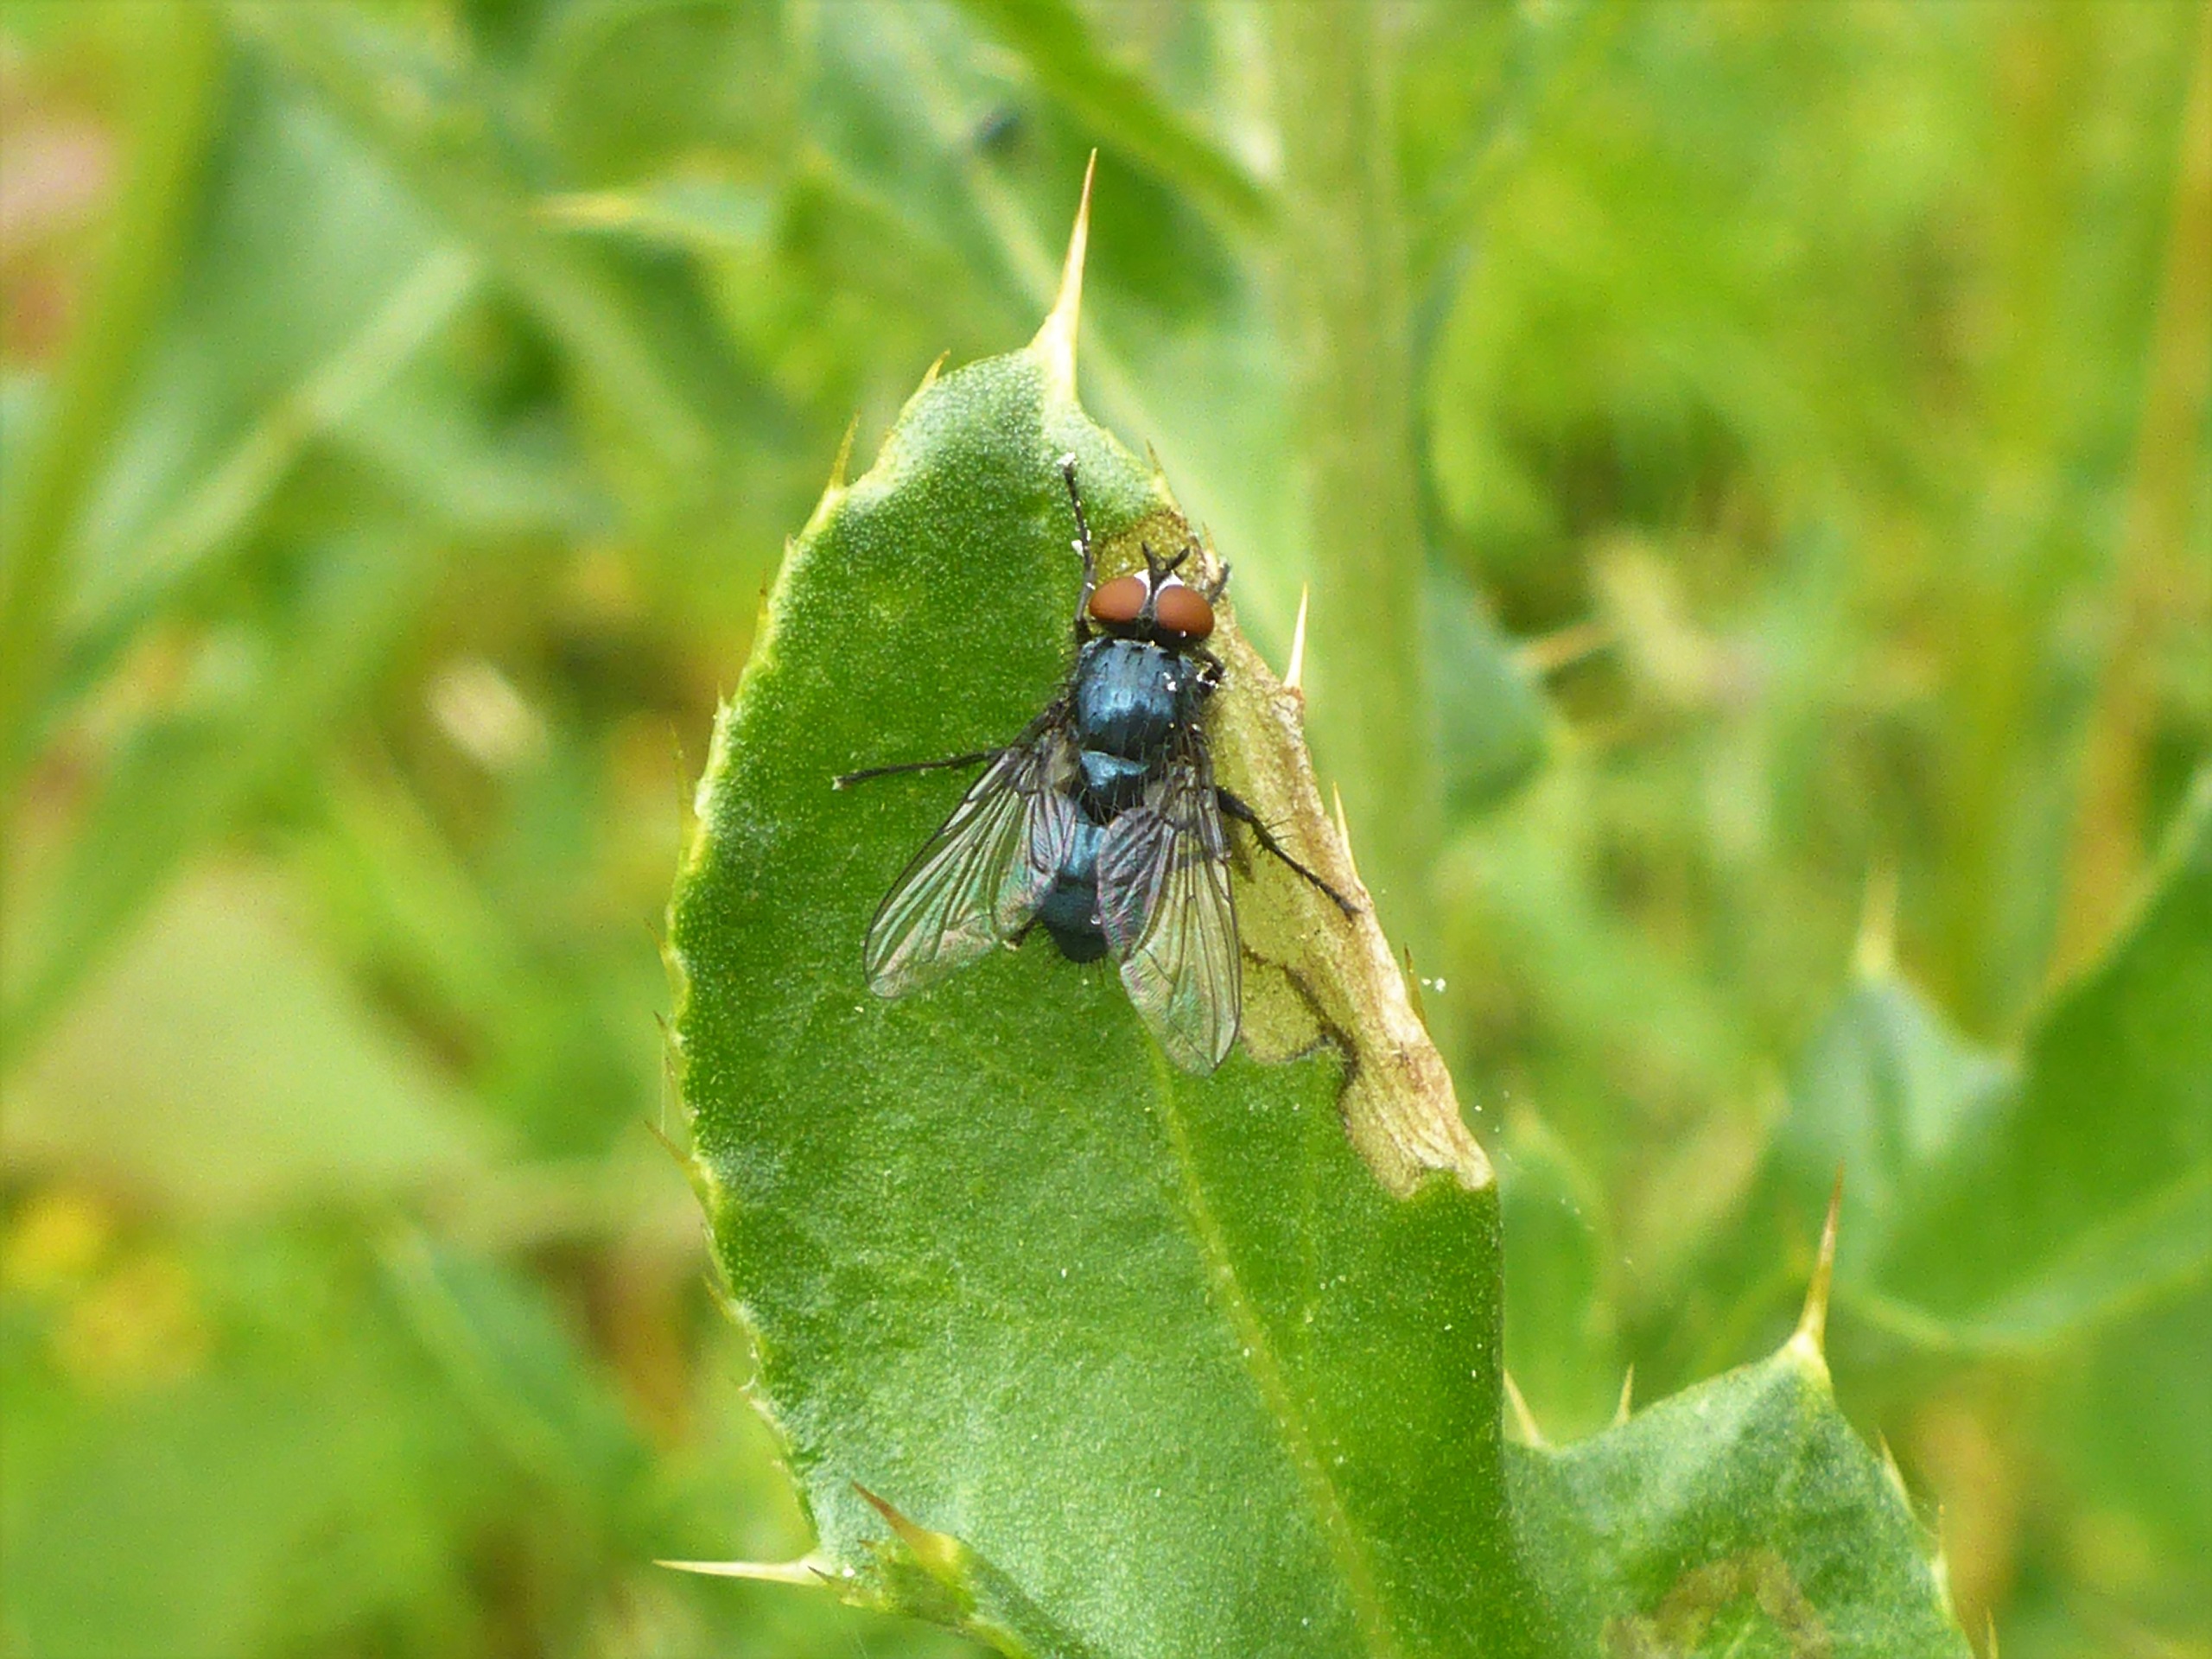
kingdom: Animalia
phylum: Arthropoda
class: Insecta
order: Diptera
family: Calliphoridae
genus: Melinda
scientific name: Melinda cognata
